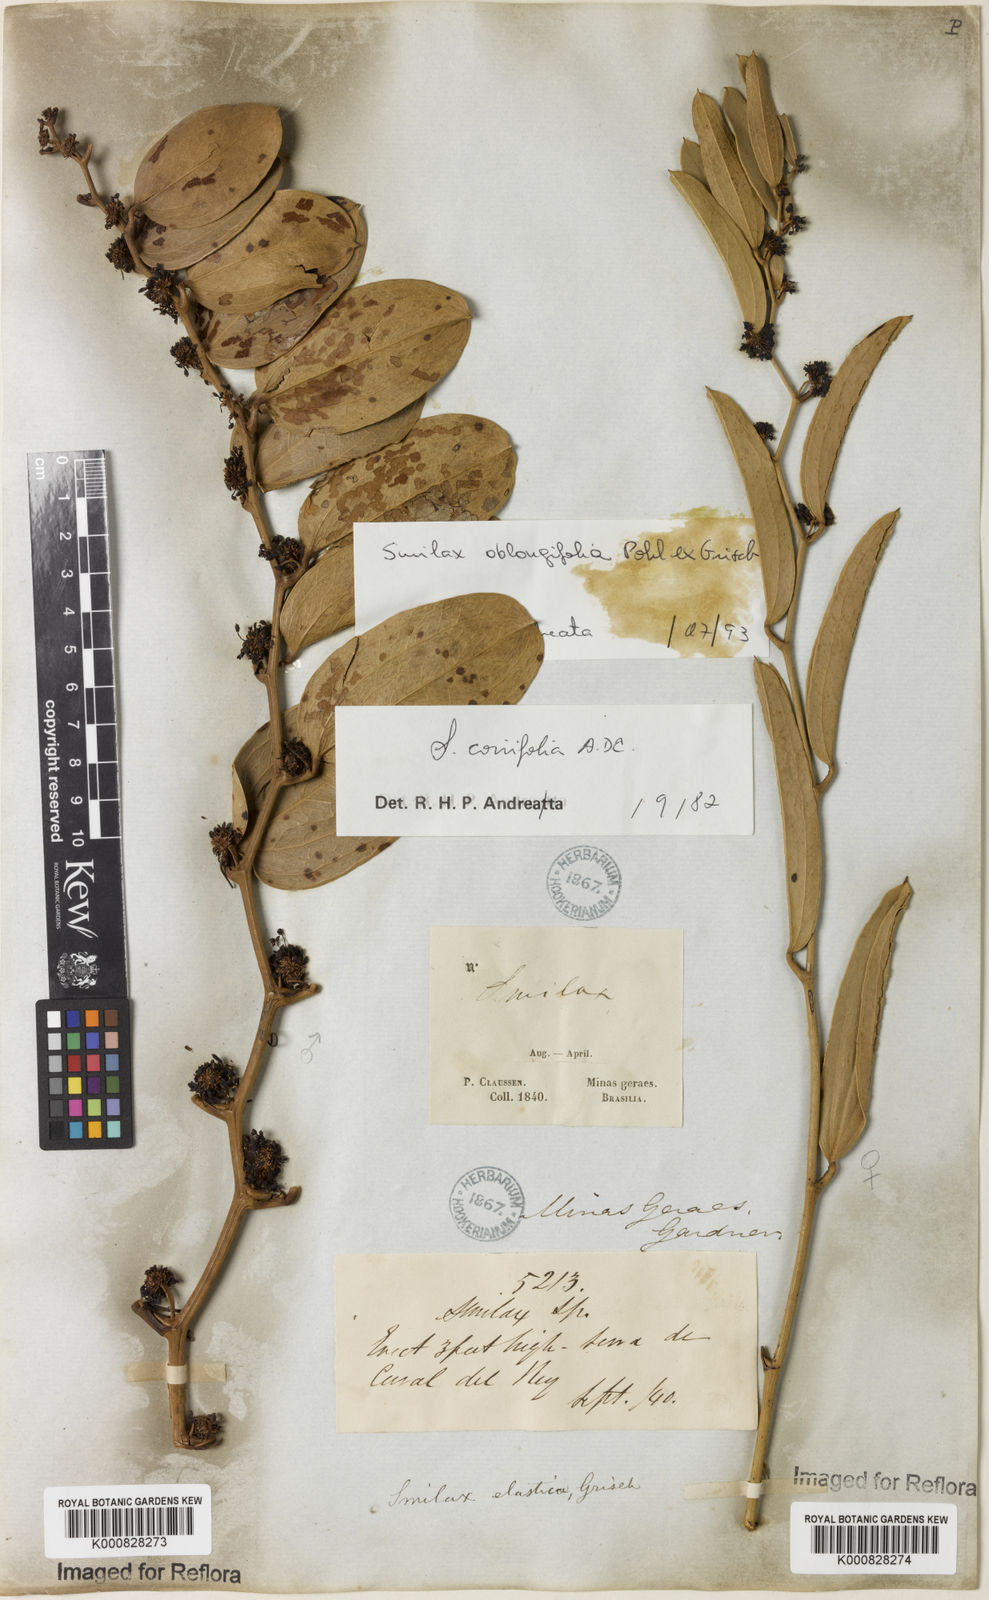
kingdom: Plantae
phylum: Tracheophyta
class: Liliopsida
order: Liliales
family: Smilacaceae
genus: Smilax
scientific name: Smilax oblongifolia
